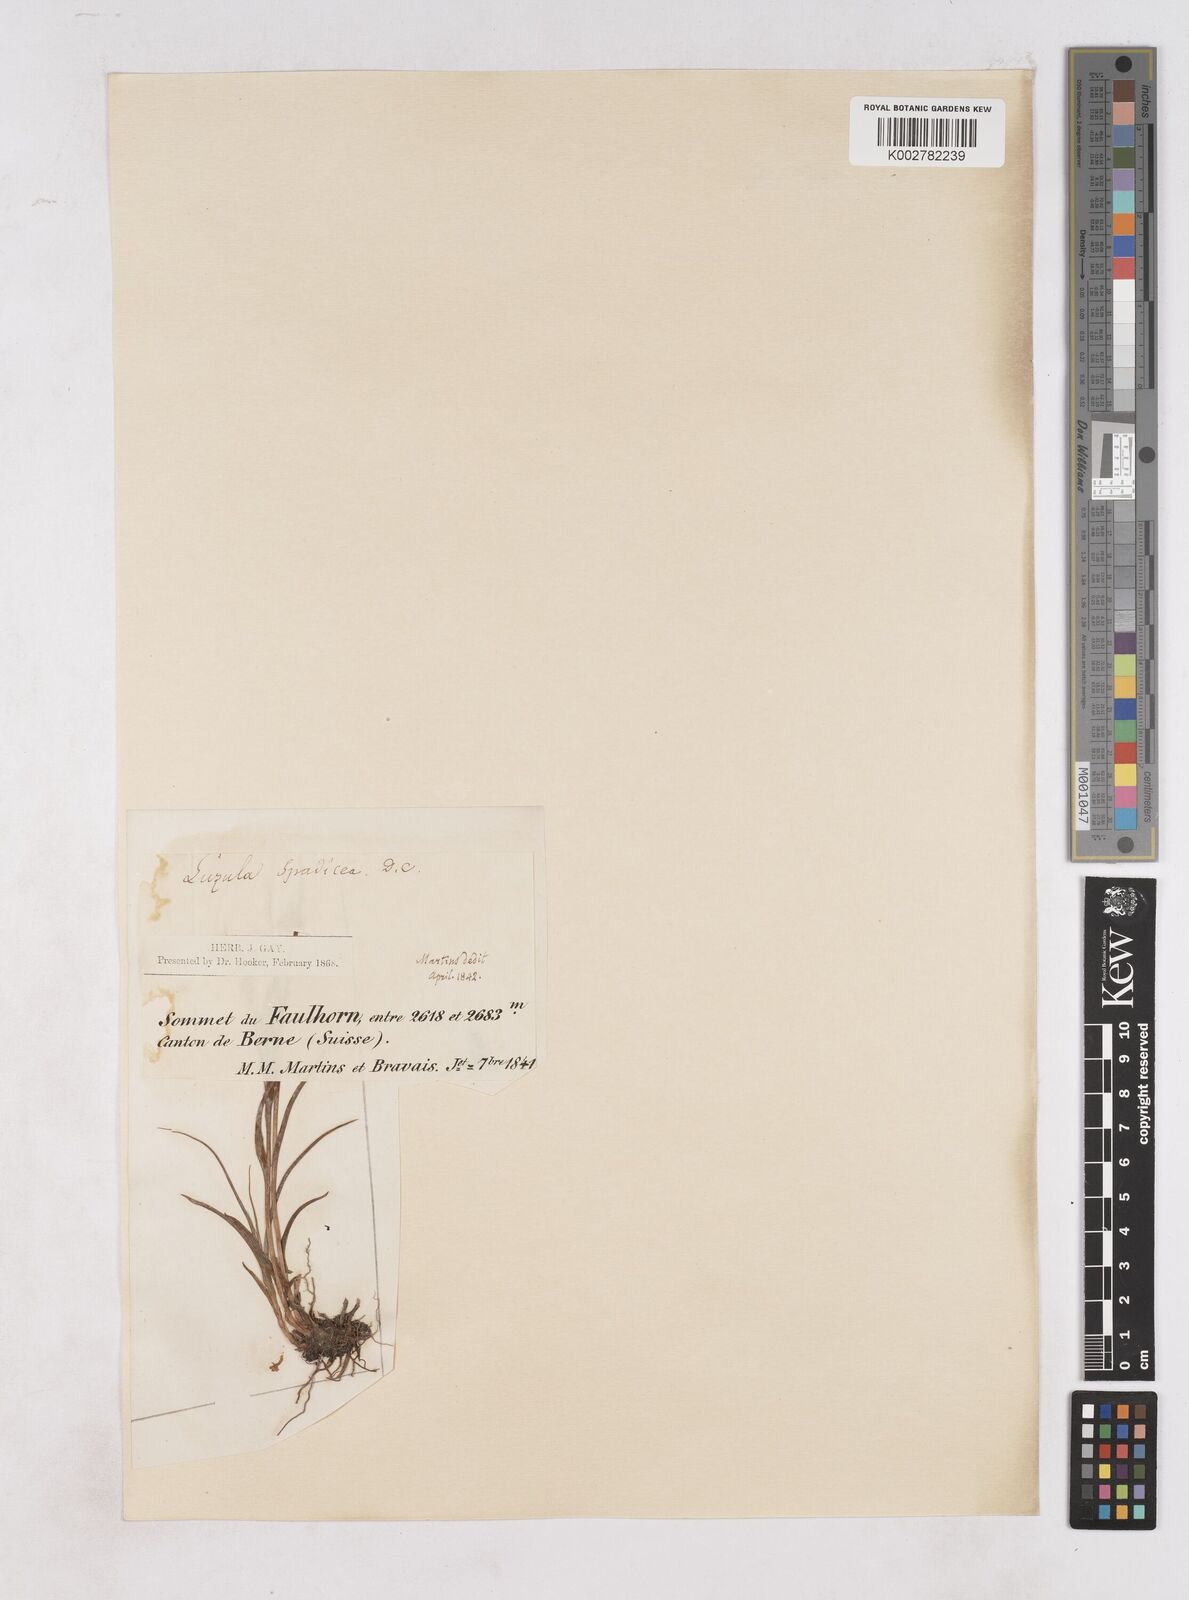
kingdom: Plantae
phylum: Tracheophyta
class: Liliopsida
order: Poales
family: Juncaceae
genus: Luzula
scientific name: Luzula alpinopilosa
